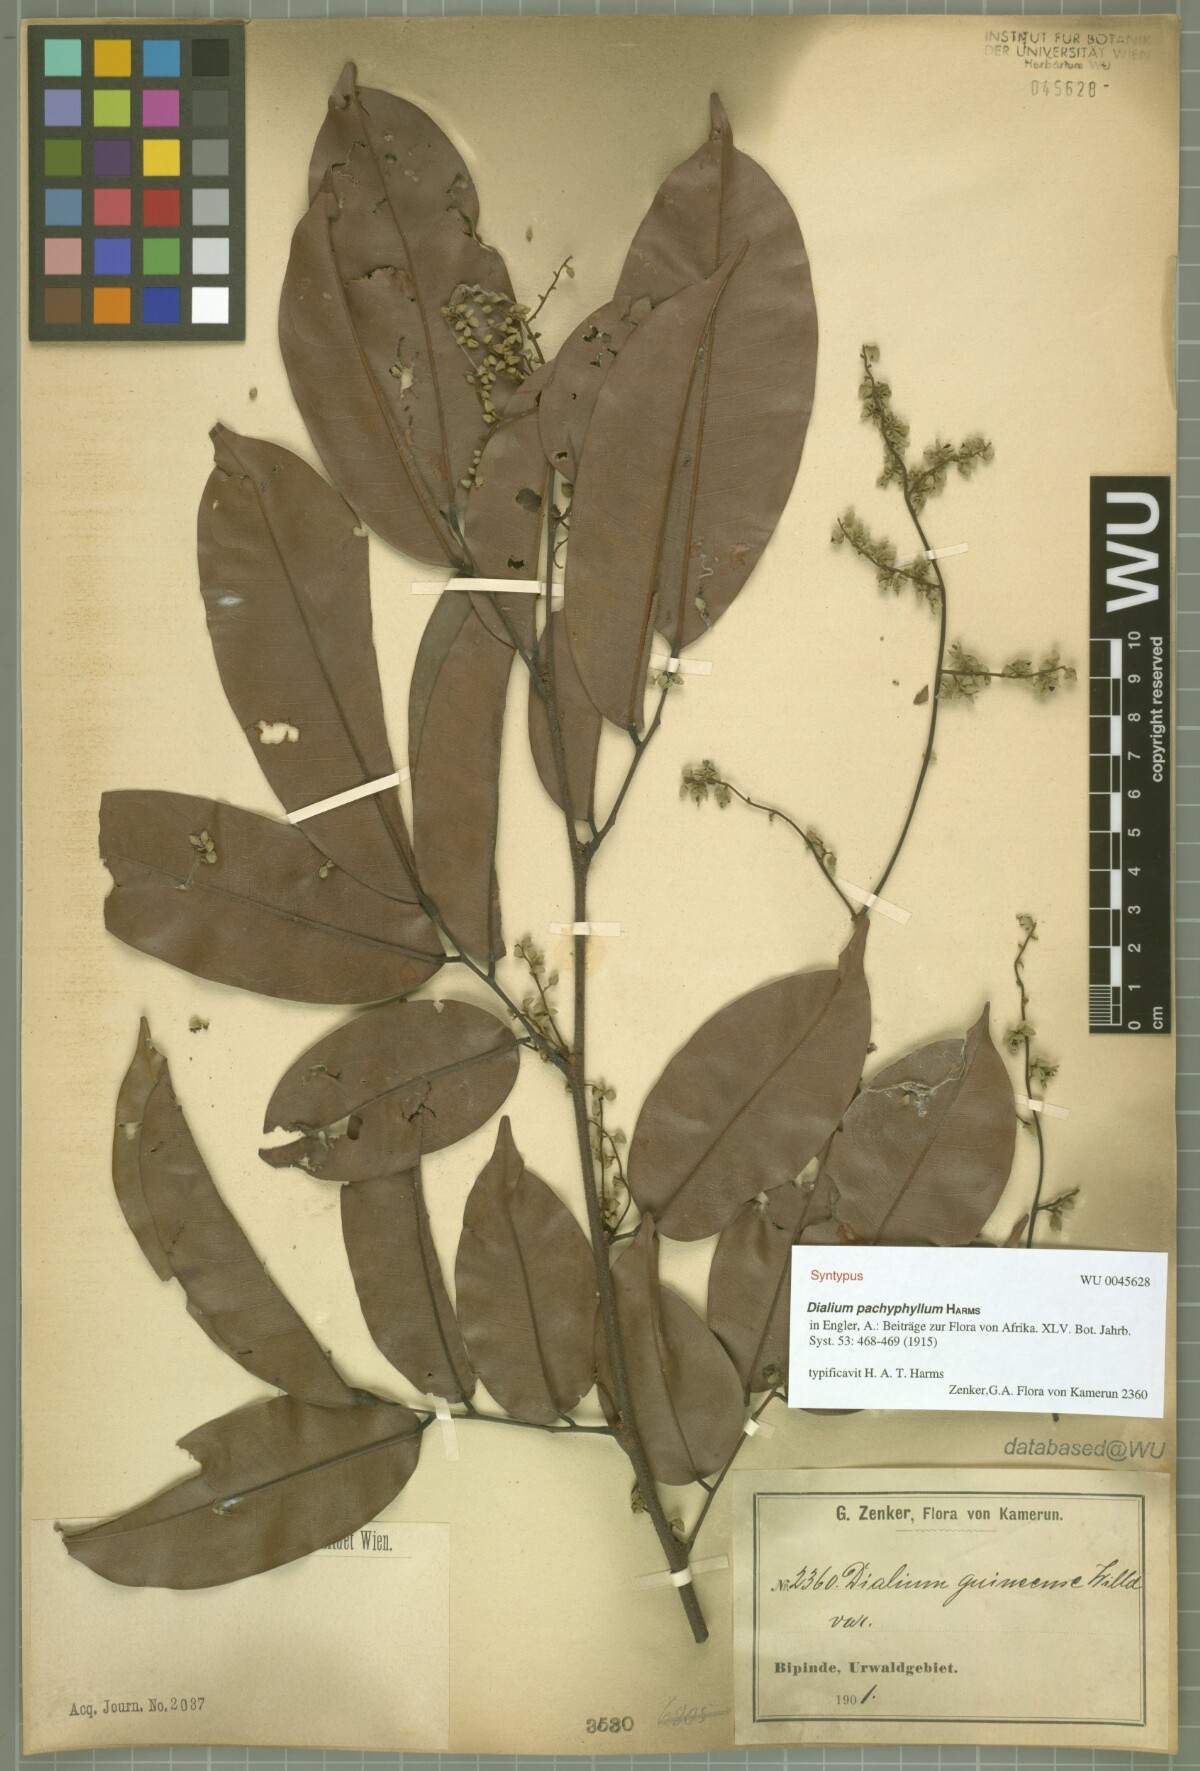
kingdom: Plantae
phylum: Tracheophyta
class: Magnoliopsida
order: Fabales
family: Fabaceae
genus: Dialium
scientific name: Dialium pachyphyllum
